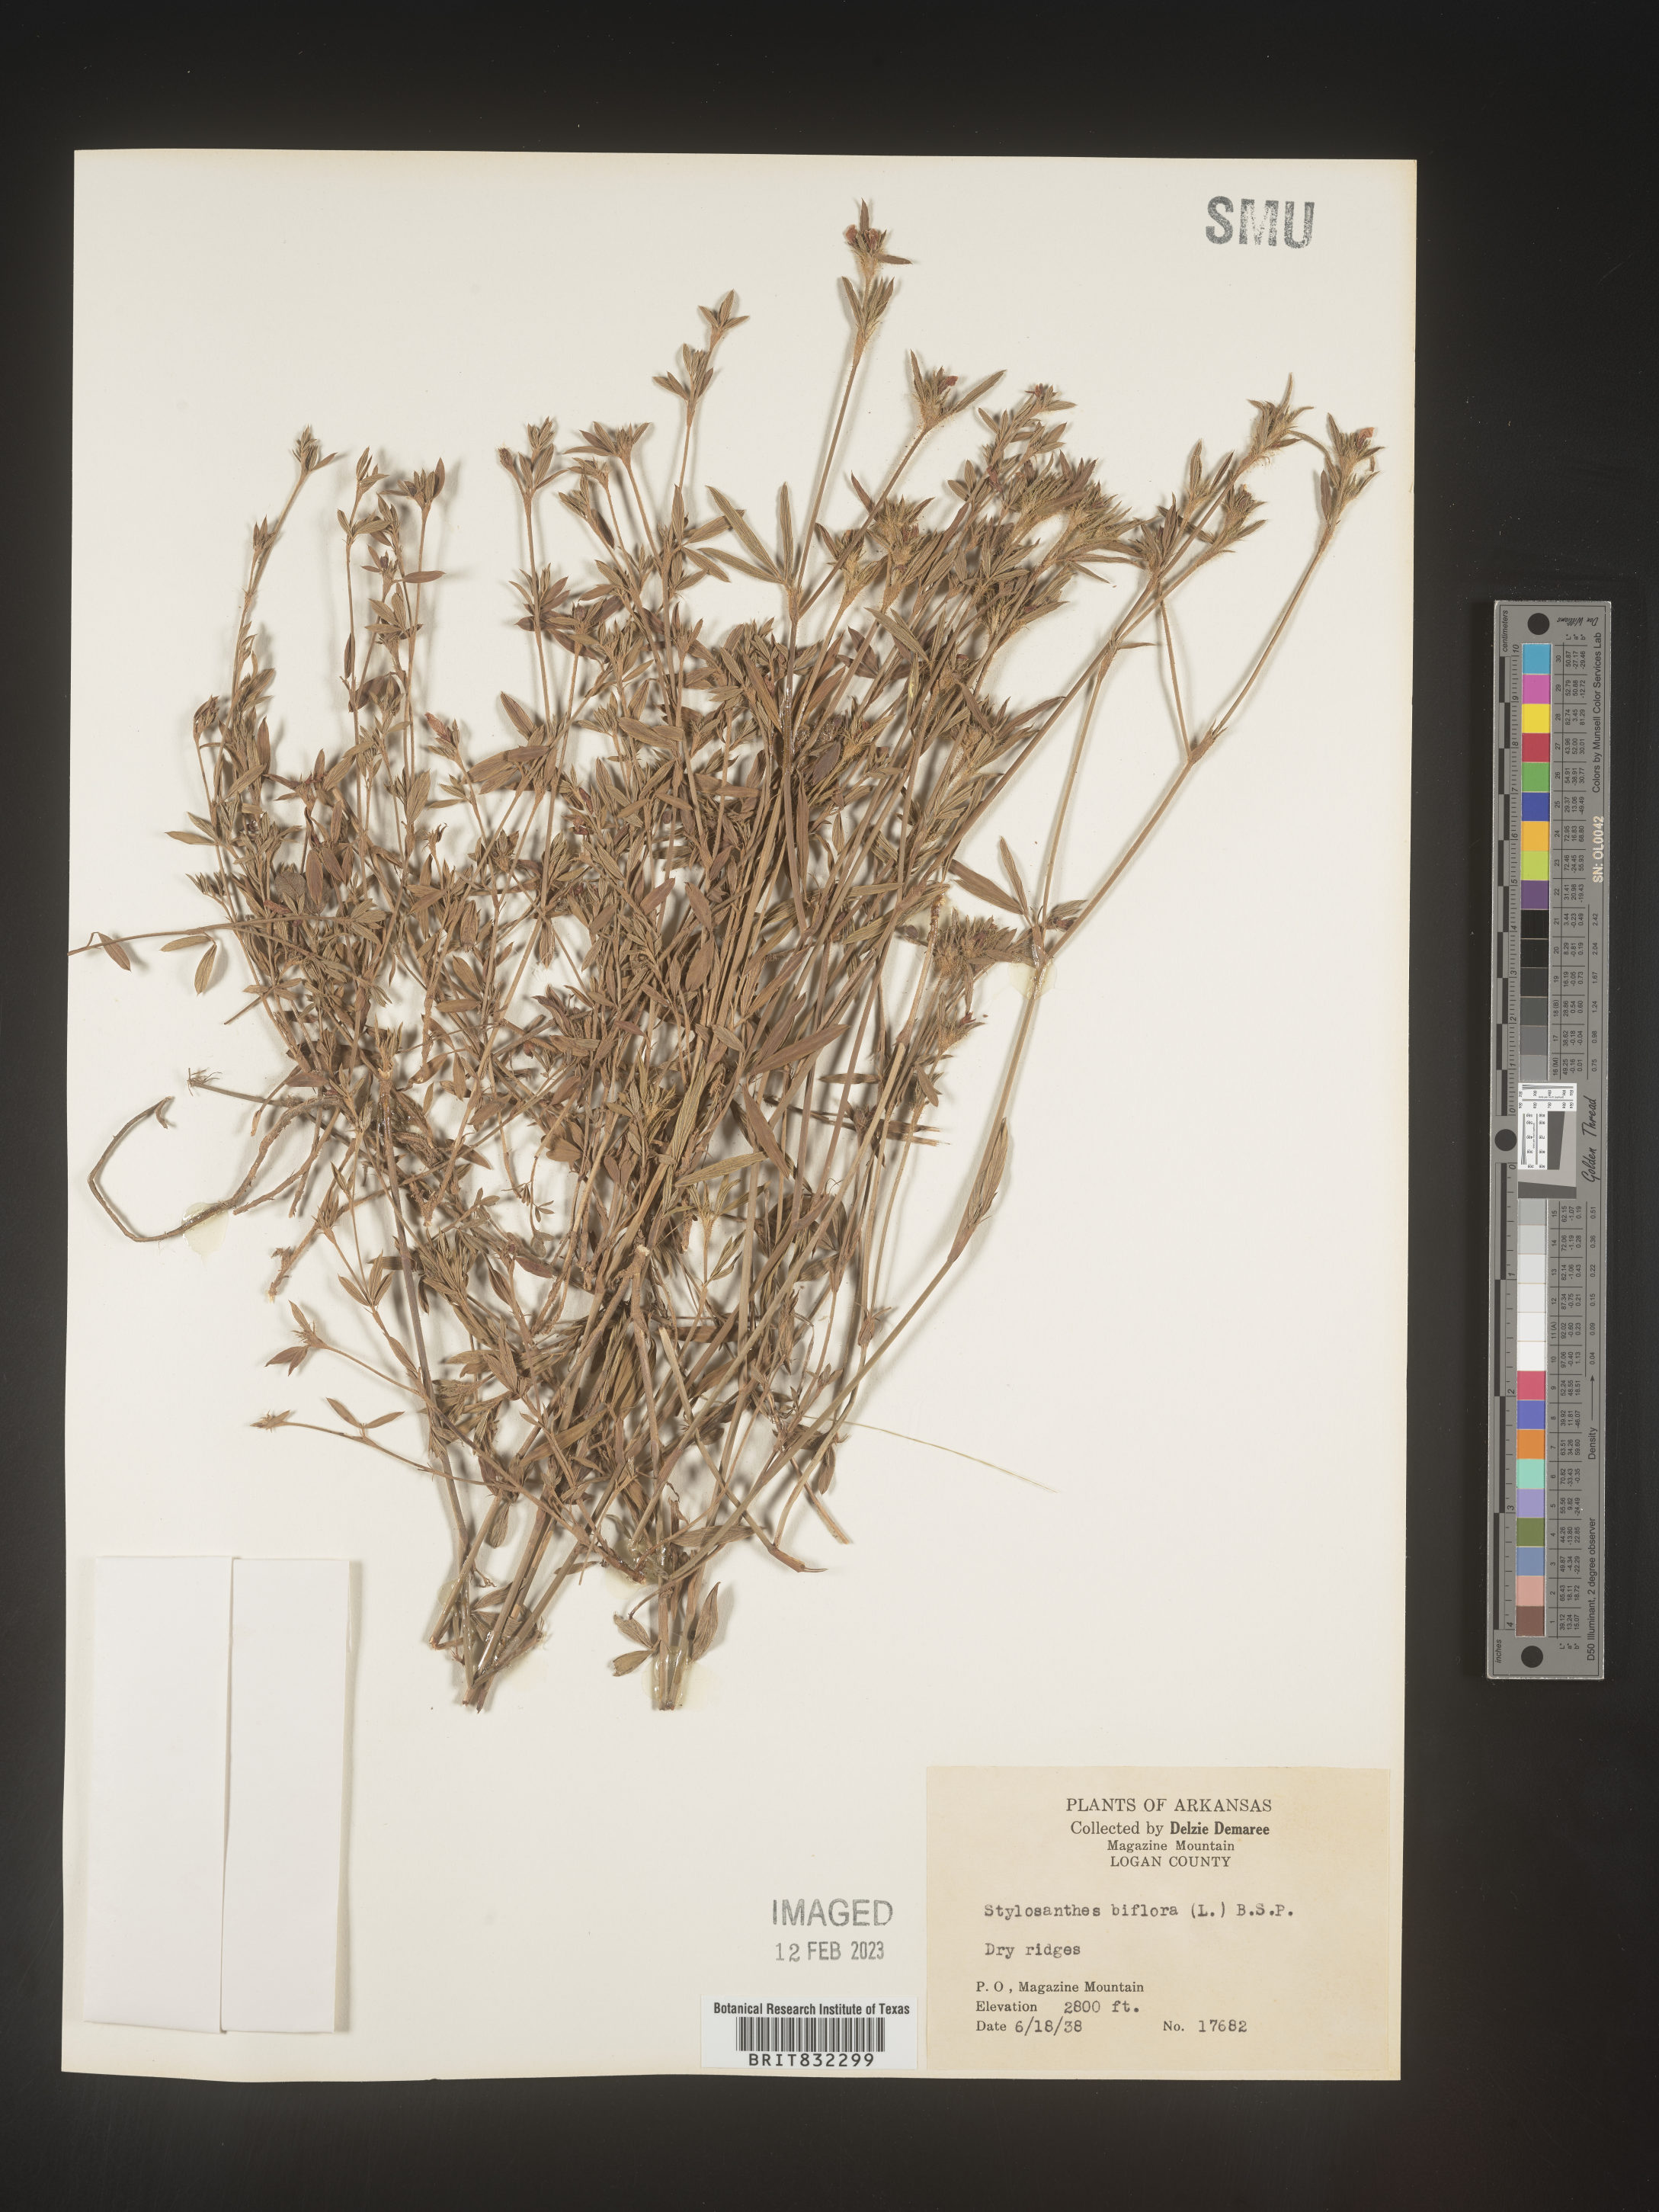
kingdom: Plantae
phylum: Tracheophyta
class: Magnoliopsida
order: Fabales
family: Fabaceae
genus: Stylosanthes
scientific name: Stylosanthes biflora
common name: Two-flower pencil-flower
